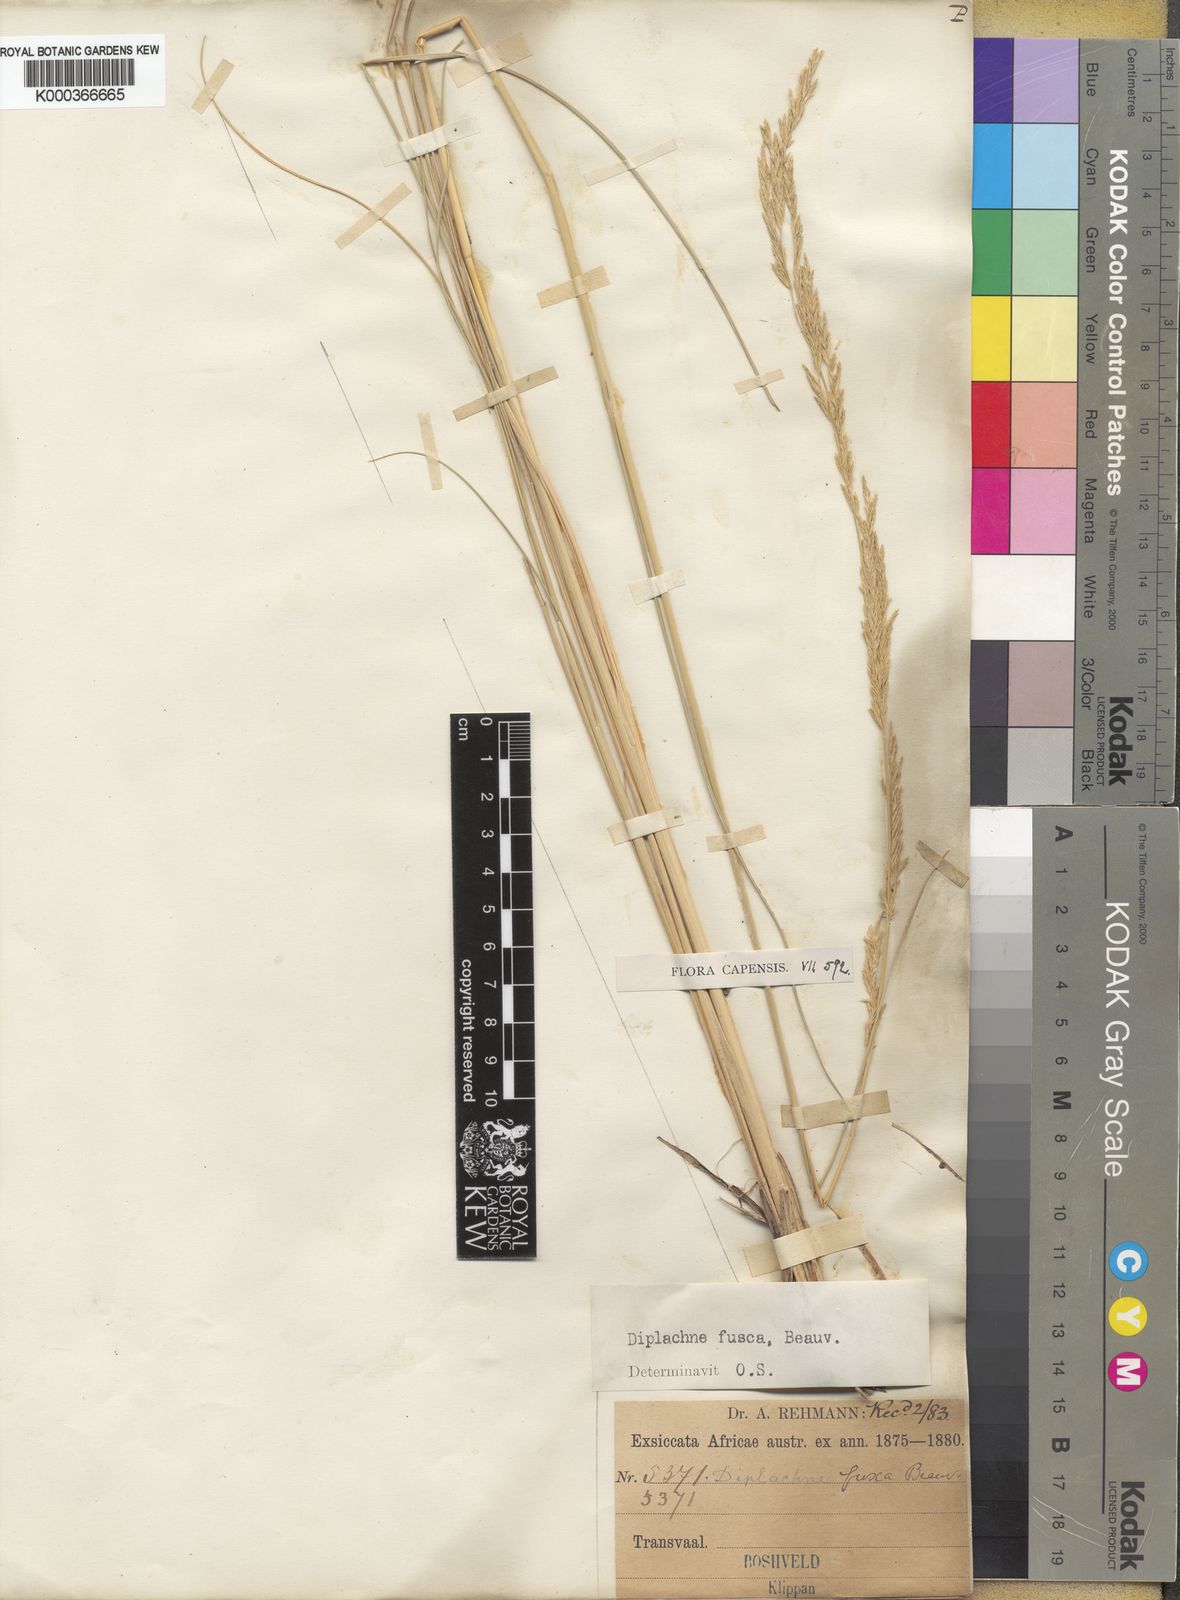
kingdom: Plantae
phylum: Tracheophyta
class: Liliopsida
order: Poales
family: Poaceae
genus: Diplachne
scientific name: Diplachne fusca
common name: Brown beetle grass
